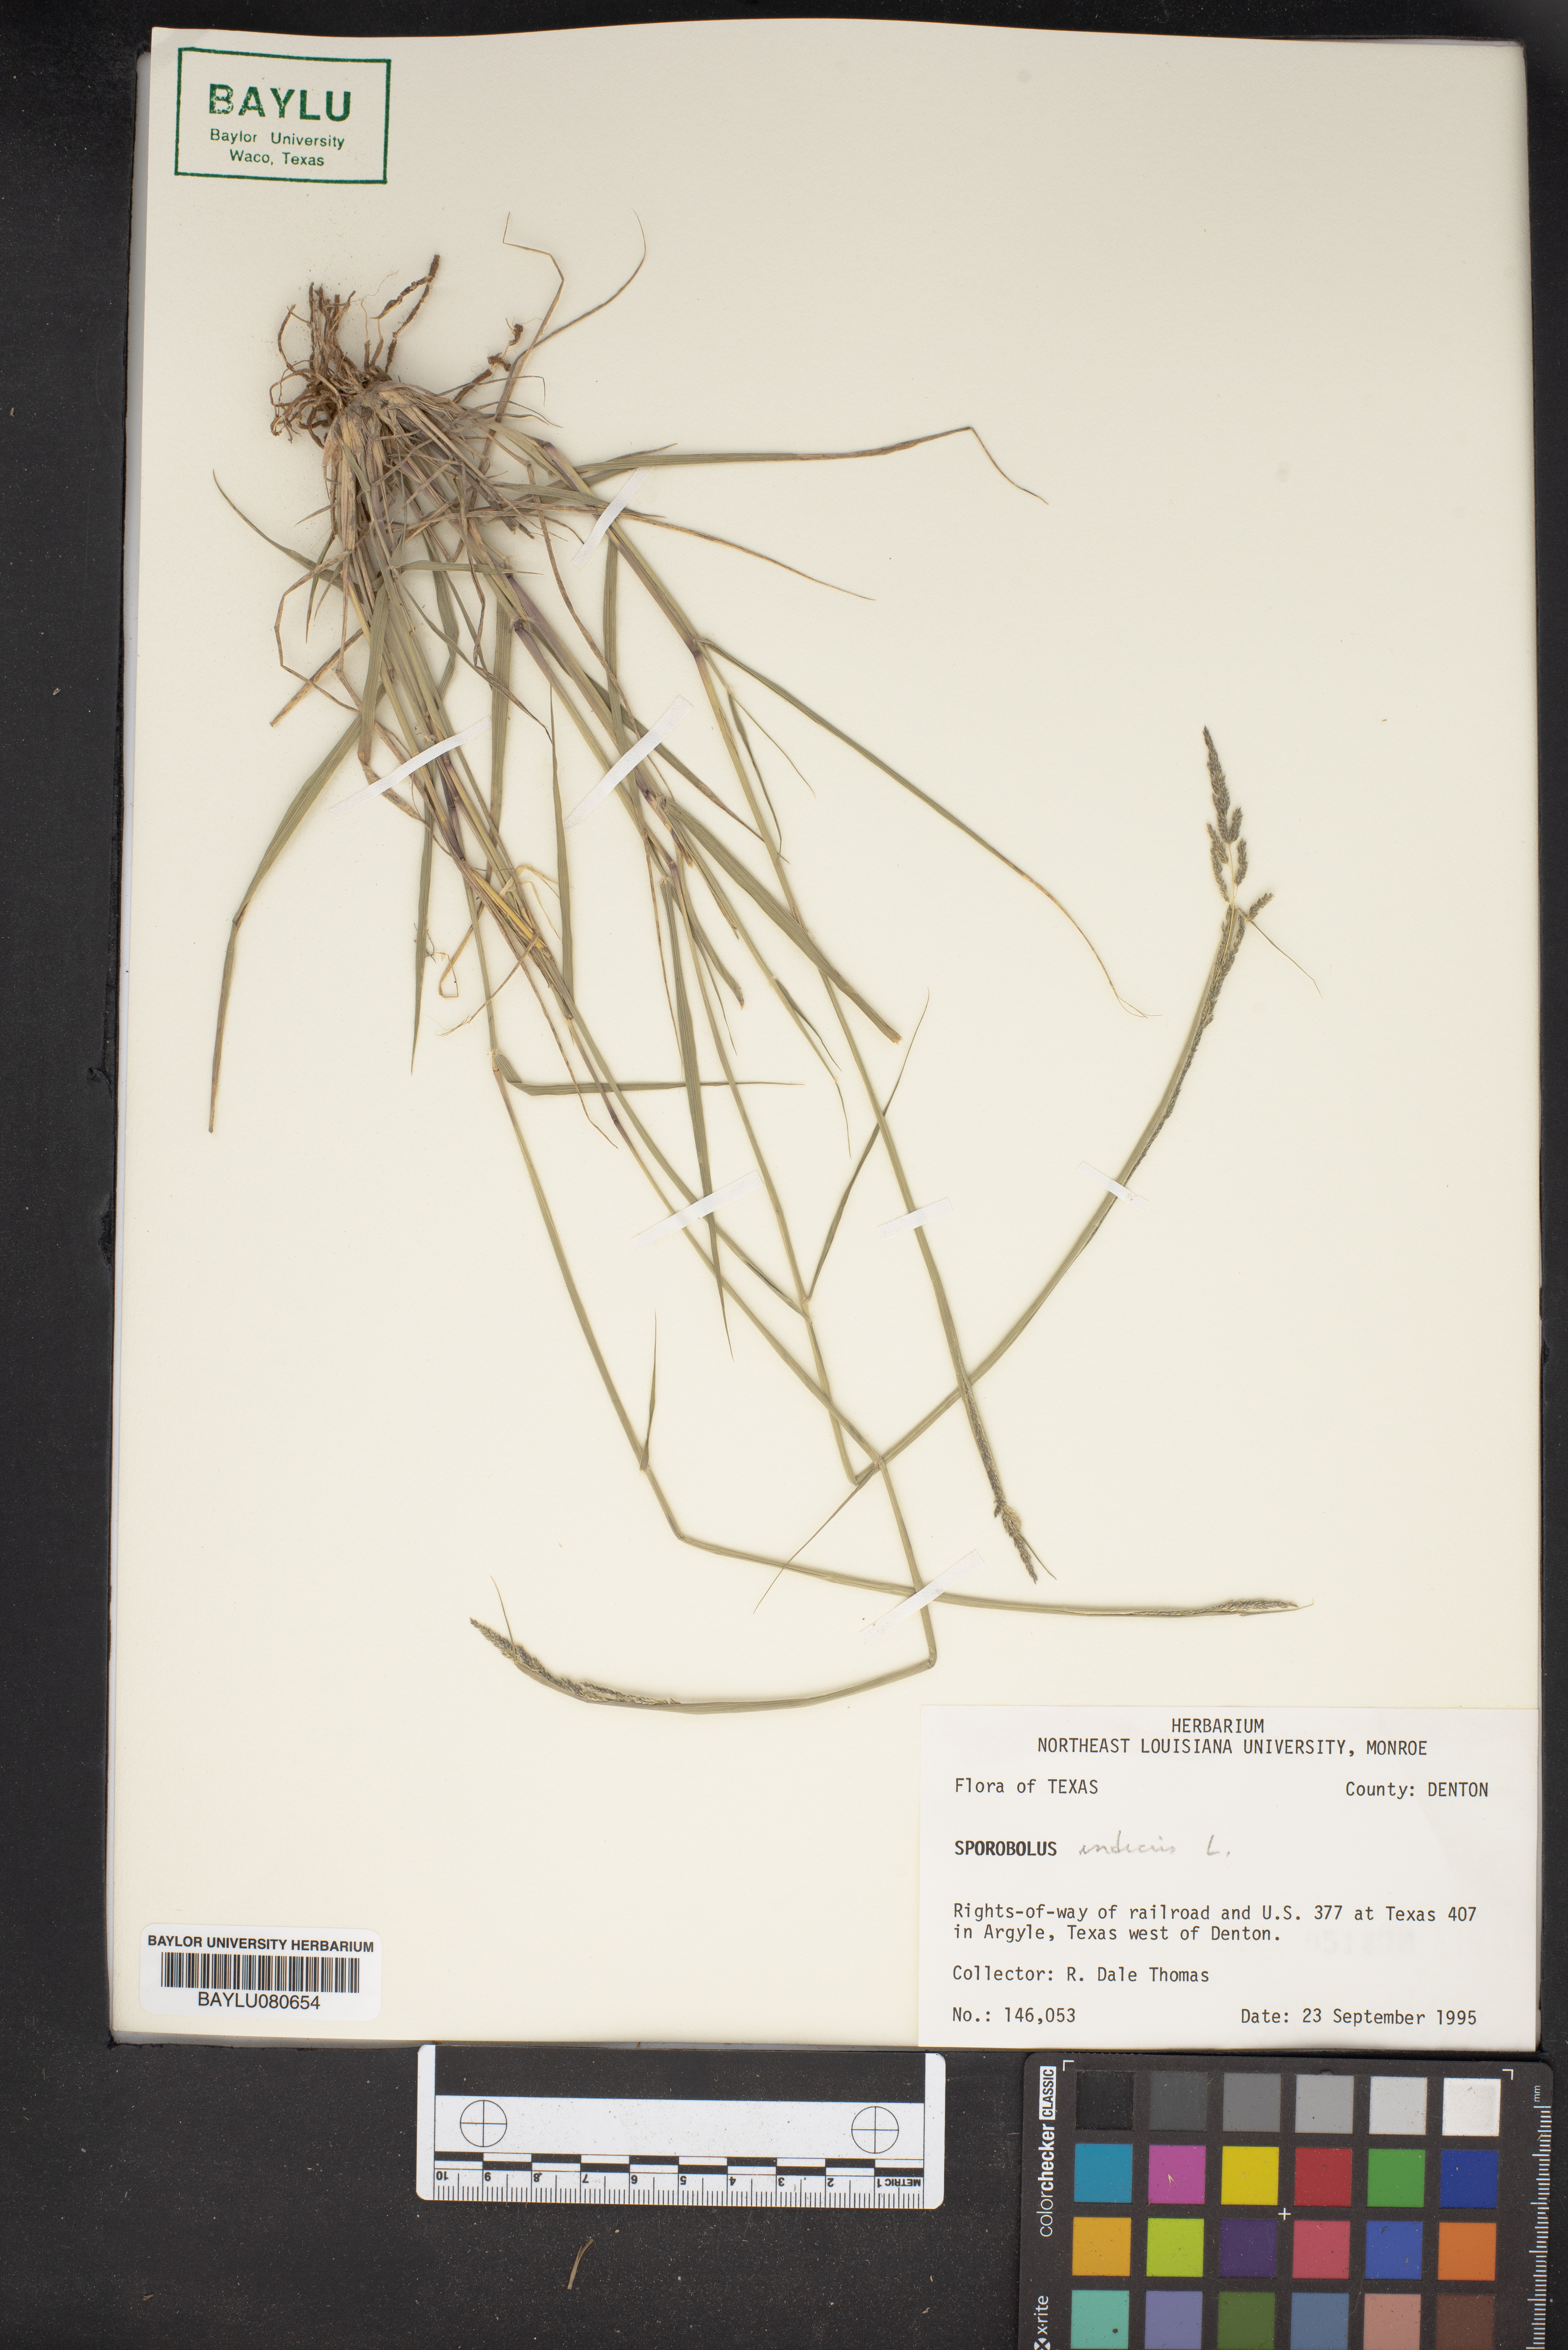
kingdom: Plantae
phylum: Tracheophyta
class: Liliopsida
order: Poales
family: Poaceae
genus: Sporobolus
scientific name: Sporobolus indicus
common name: Smut grass
